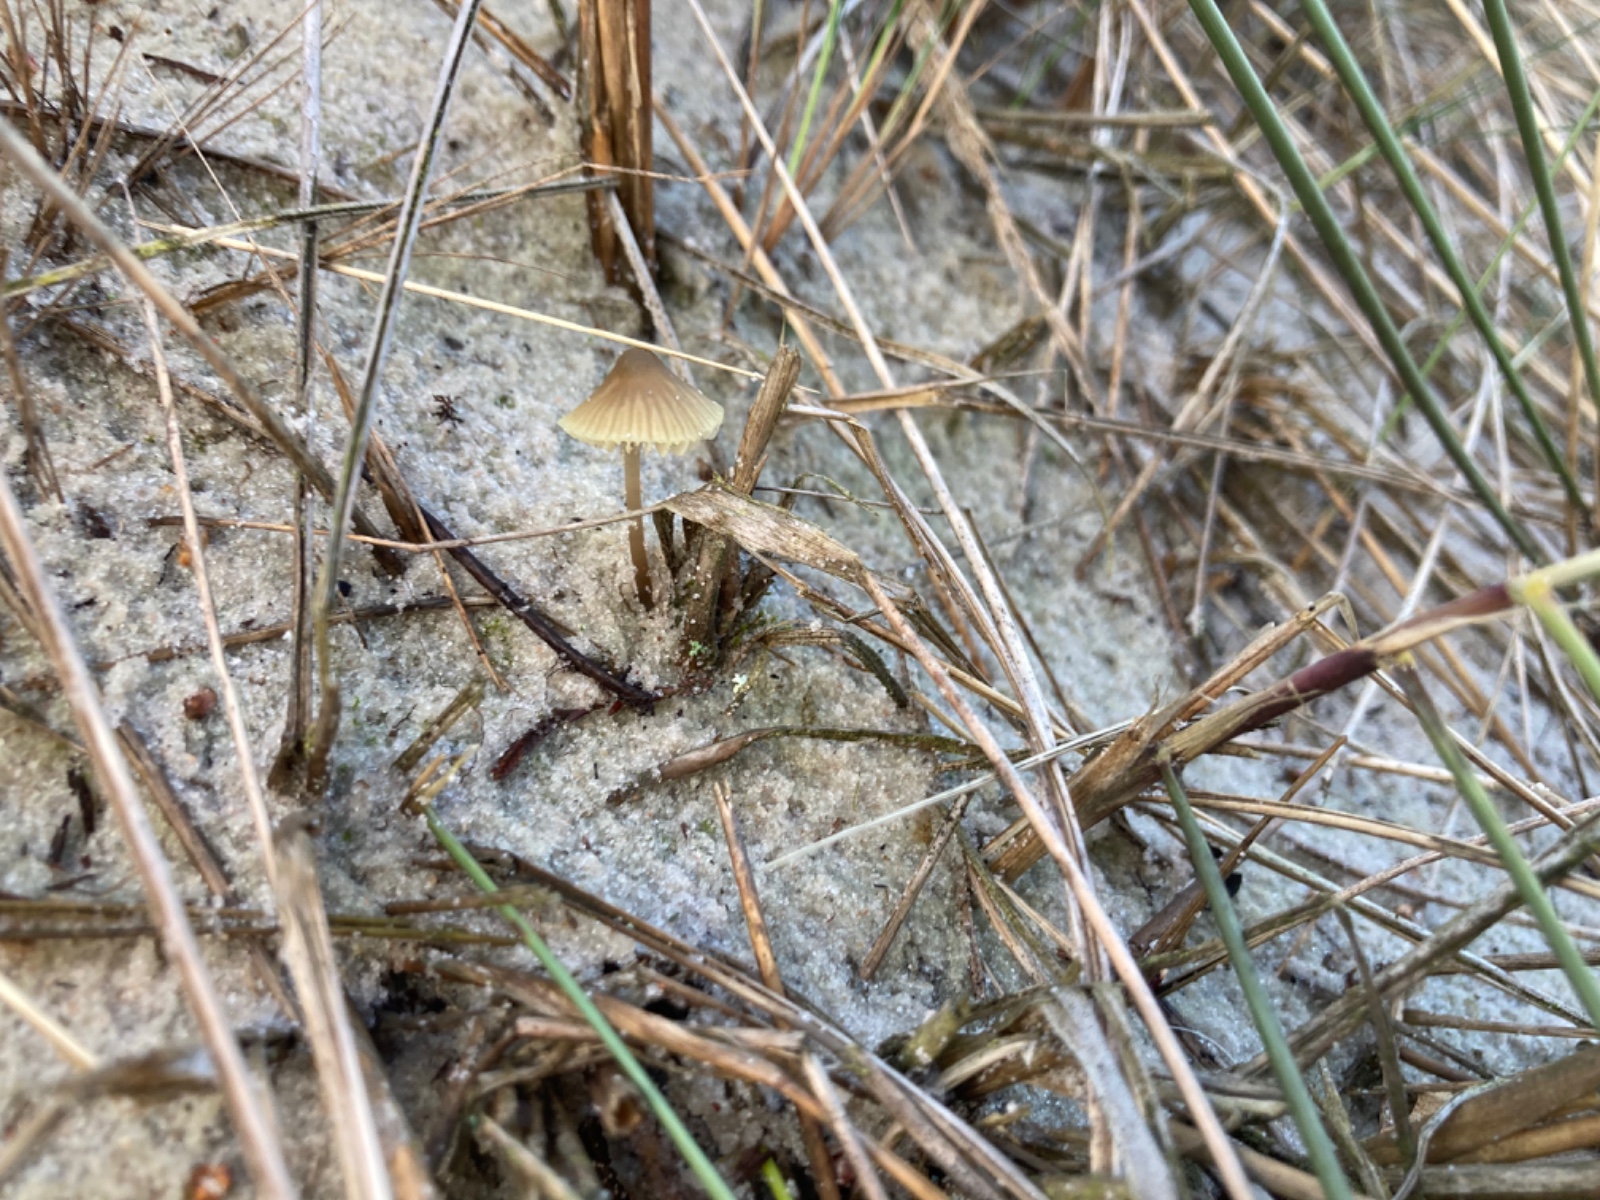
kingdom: Fungi
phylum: Basidiomycota
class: Agaricomycetes
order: Agaricales
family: Mycenaceae
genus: Mycena
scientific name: Mycena chlorantha
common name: klit-huesvamp
